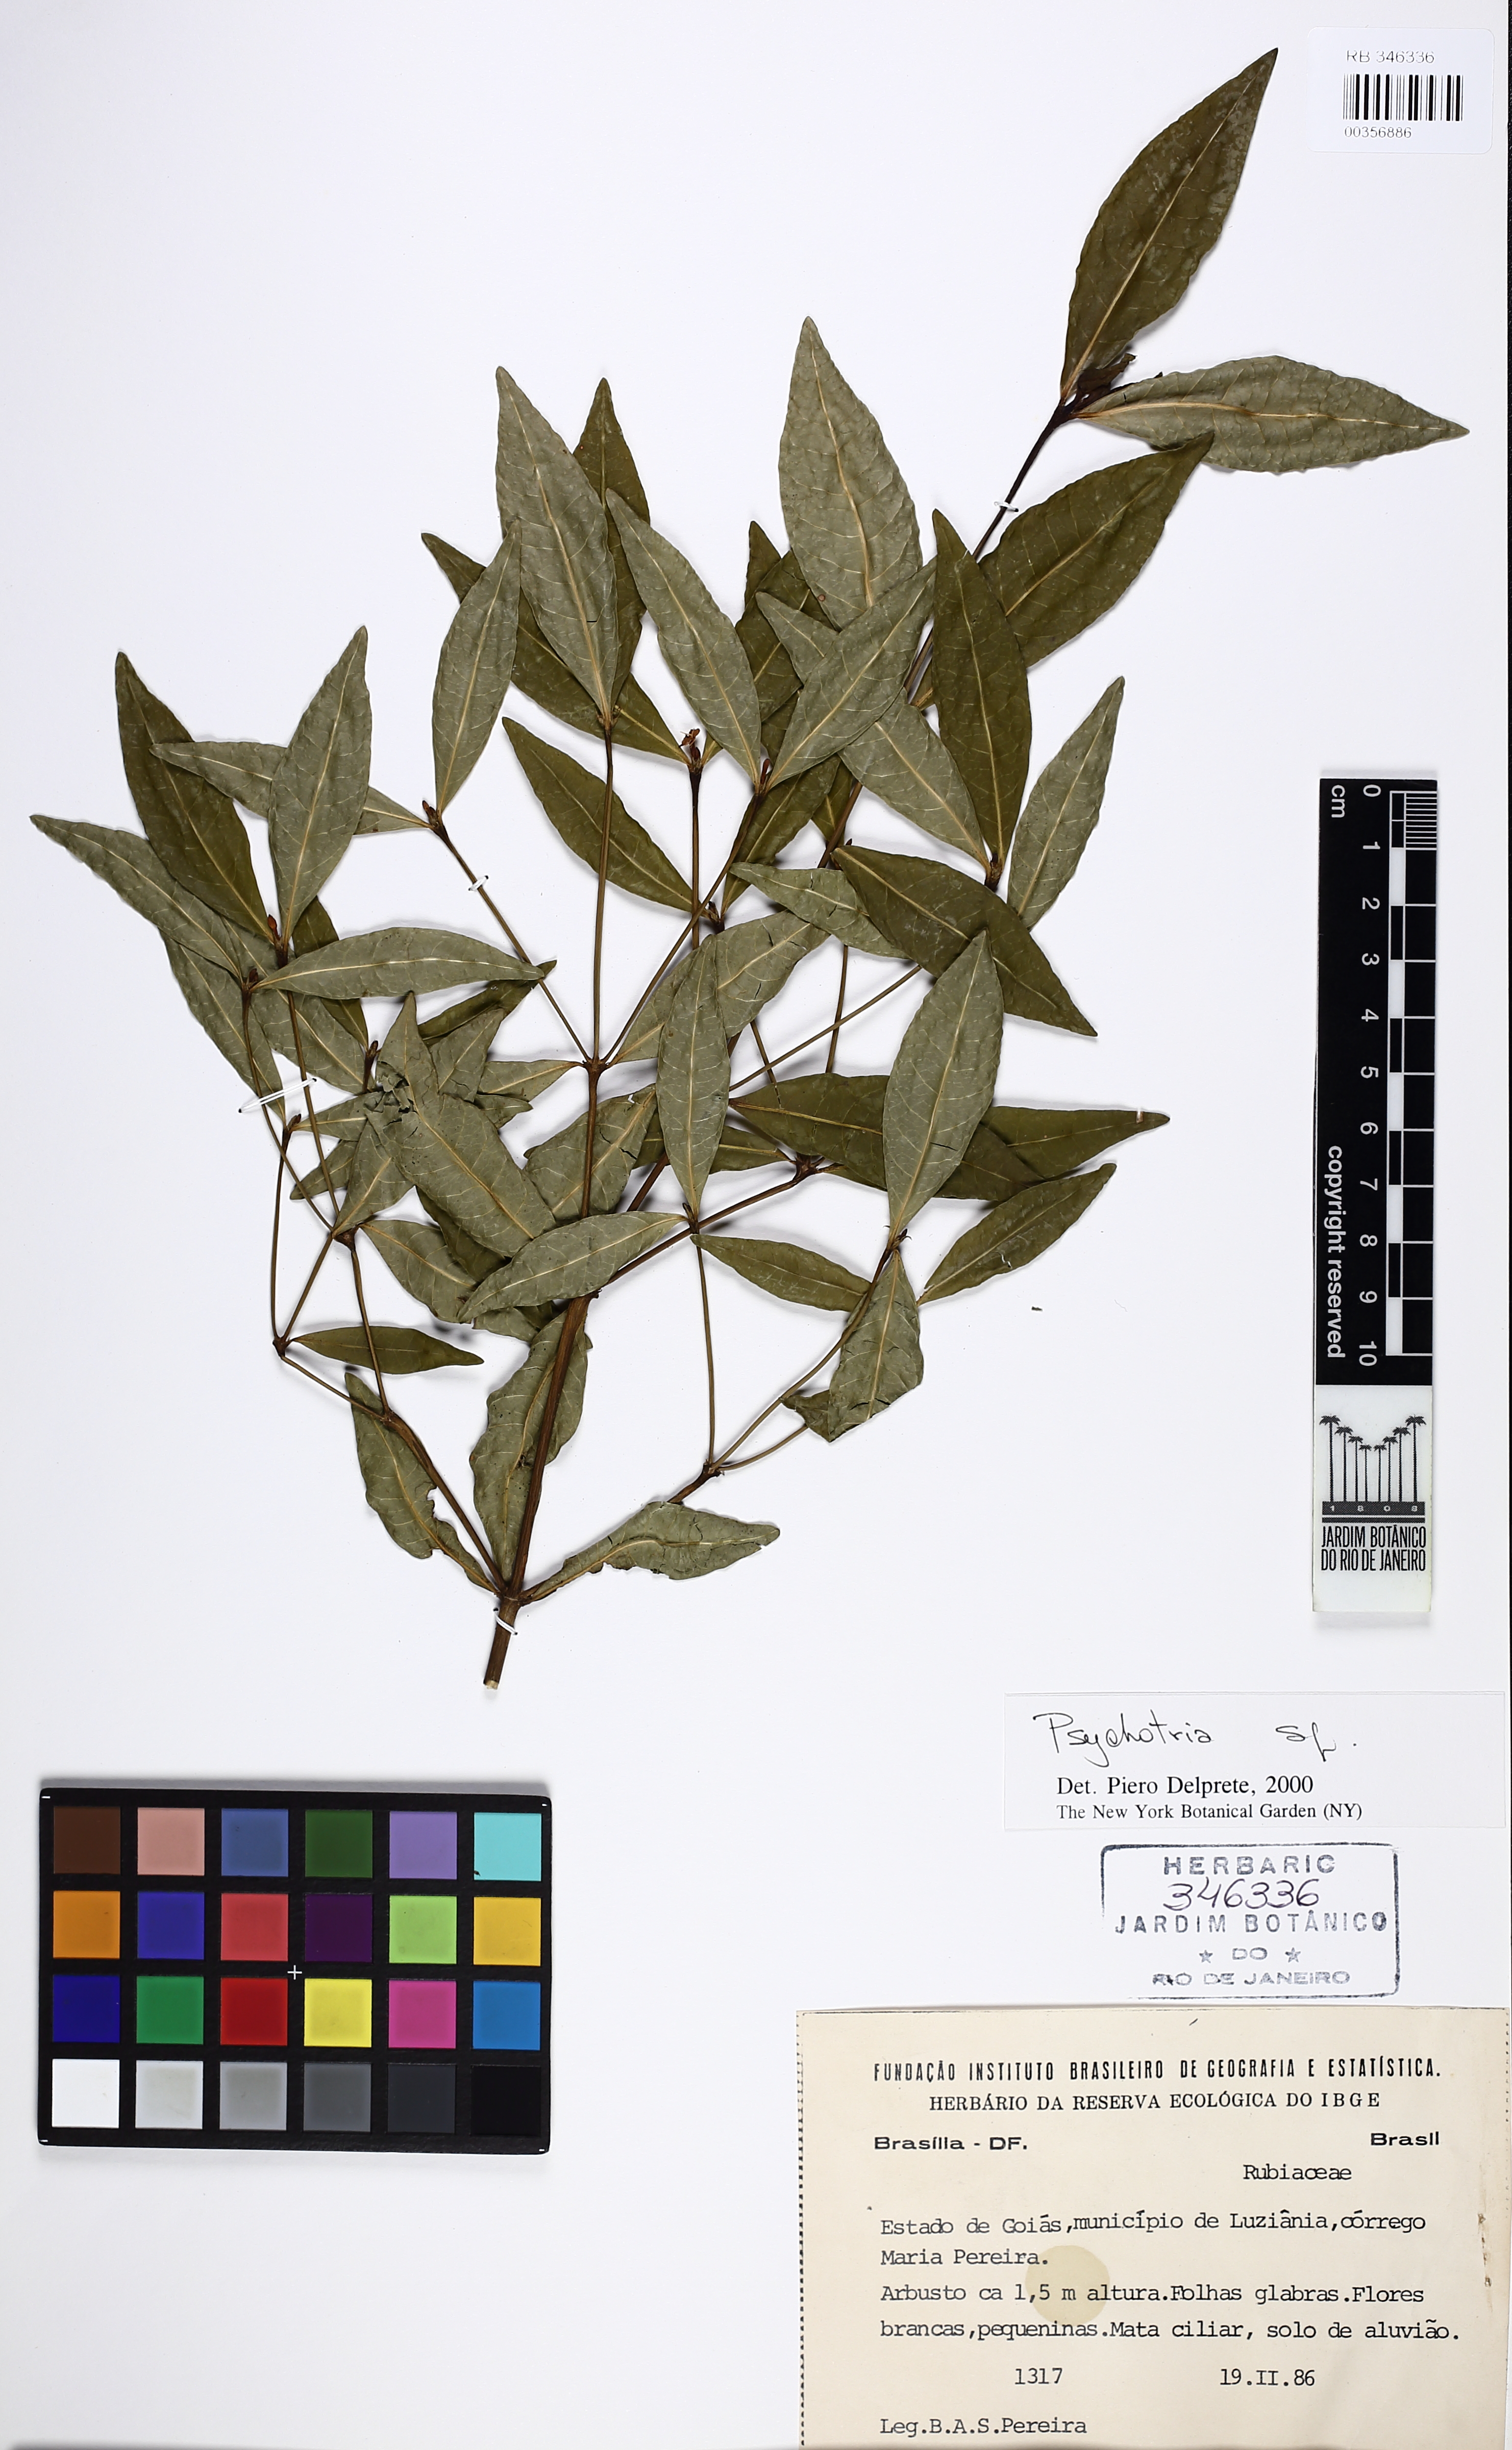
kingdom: Plantae
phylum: Tracheophyta
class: Magnoliopsida
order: Gentianales
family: Rubiaceae
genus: Psychotria
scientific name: Psychotria subtriflora
